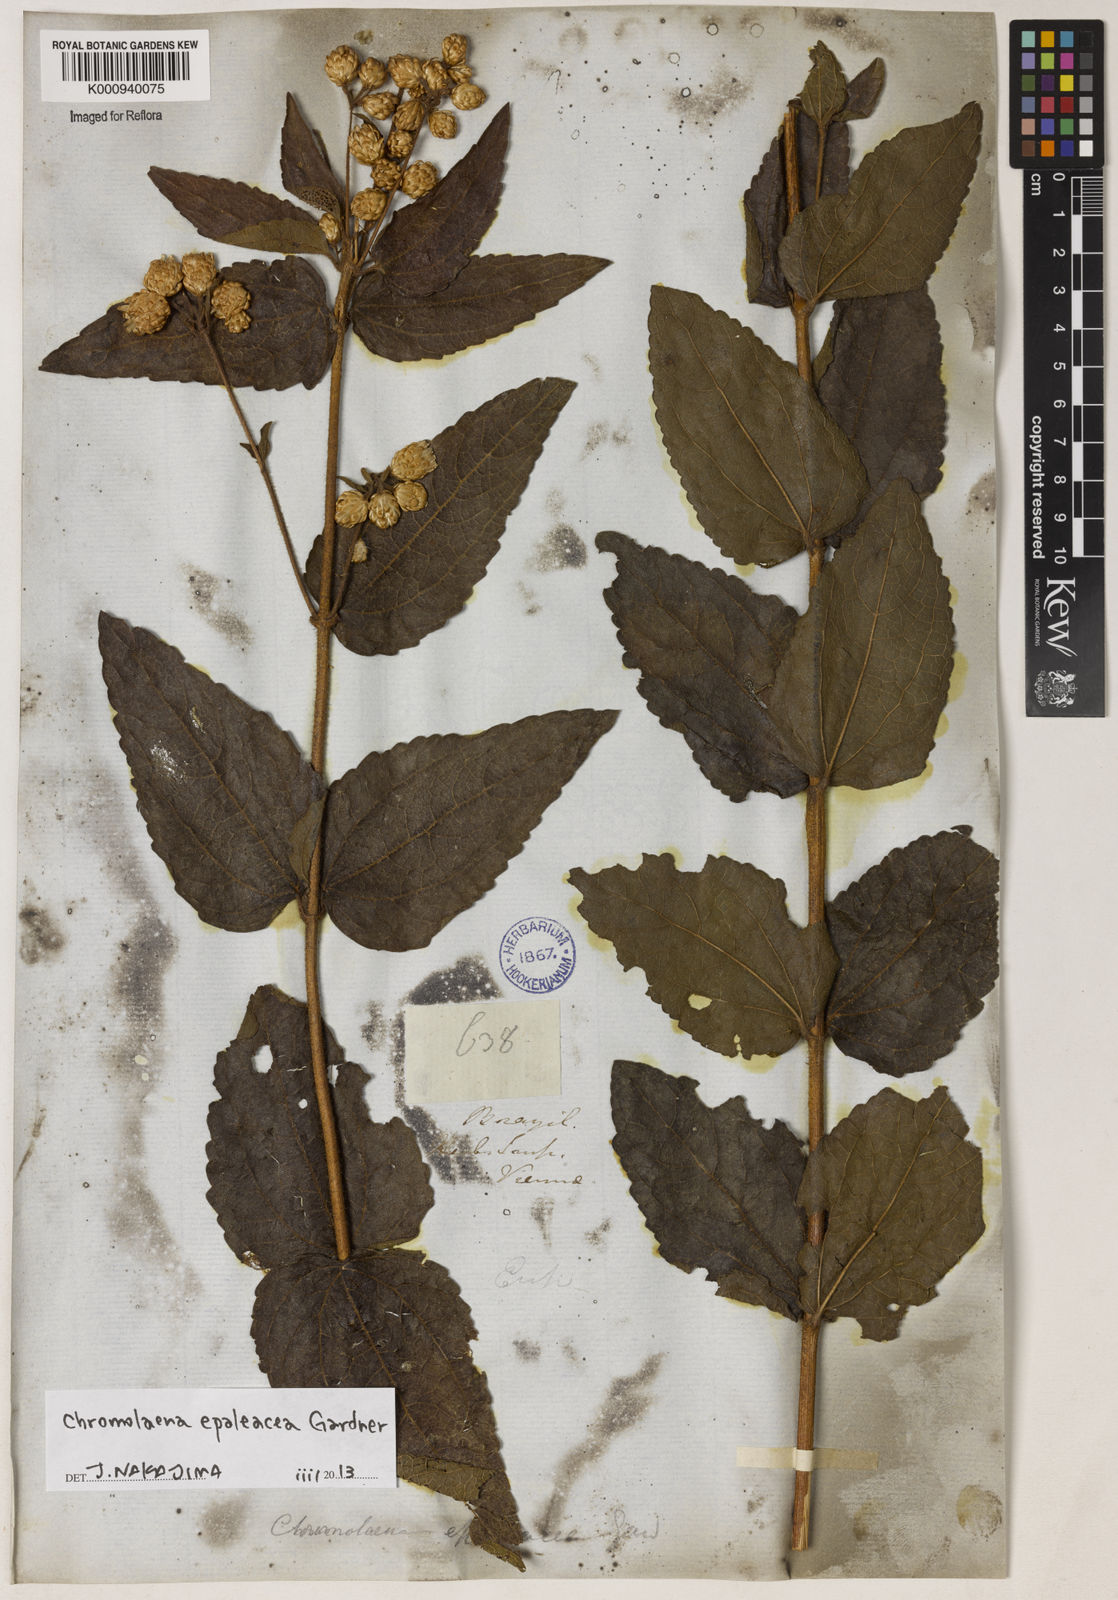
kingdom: Plantae
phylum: Tracheophyta
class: Magnoliopsida
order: Asterales
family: Asteraceae
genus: Chromolaena
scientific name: Chromolaena epaleacea
